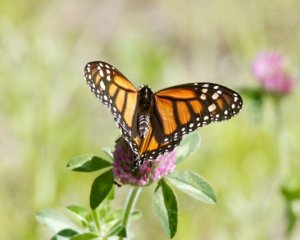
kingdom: Animalia
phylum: Arthropoda
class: Insecta
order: Lepidoptera
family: Nymphalidae
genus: Danaus
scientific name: Danaus plexippus
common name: Monarch
